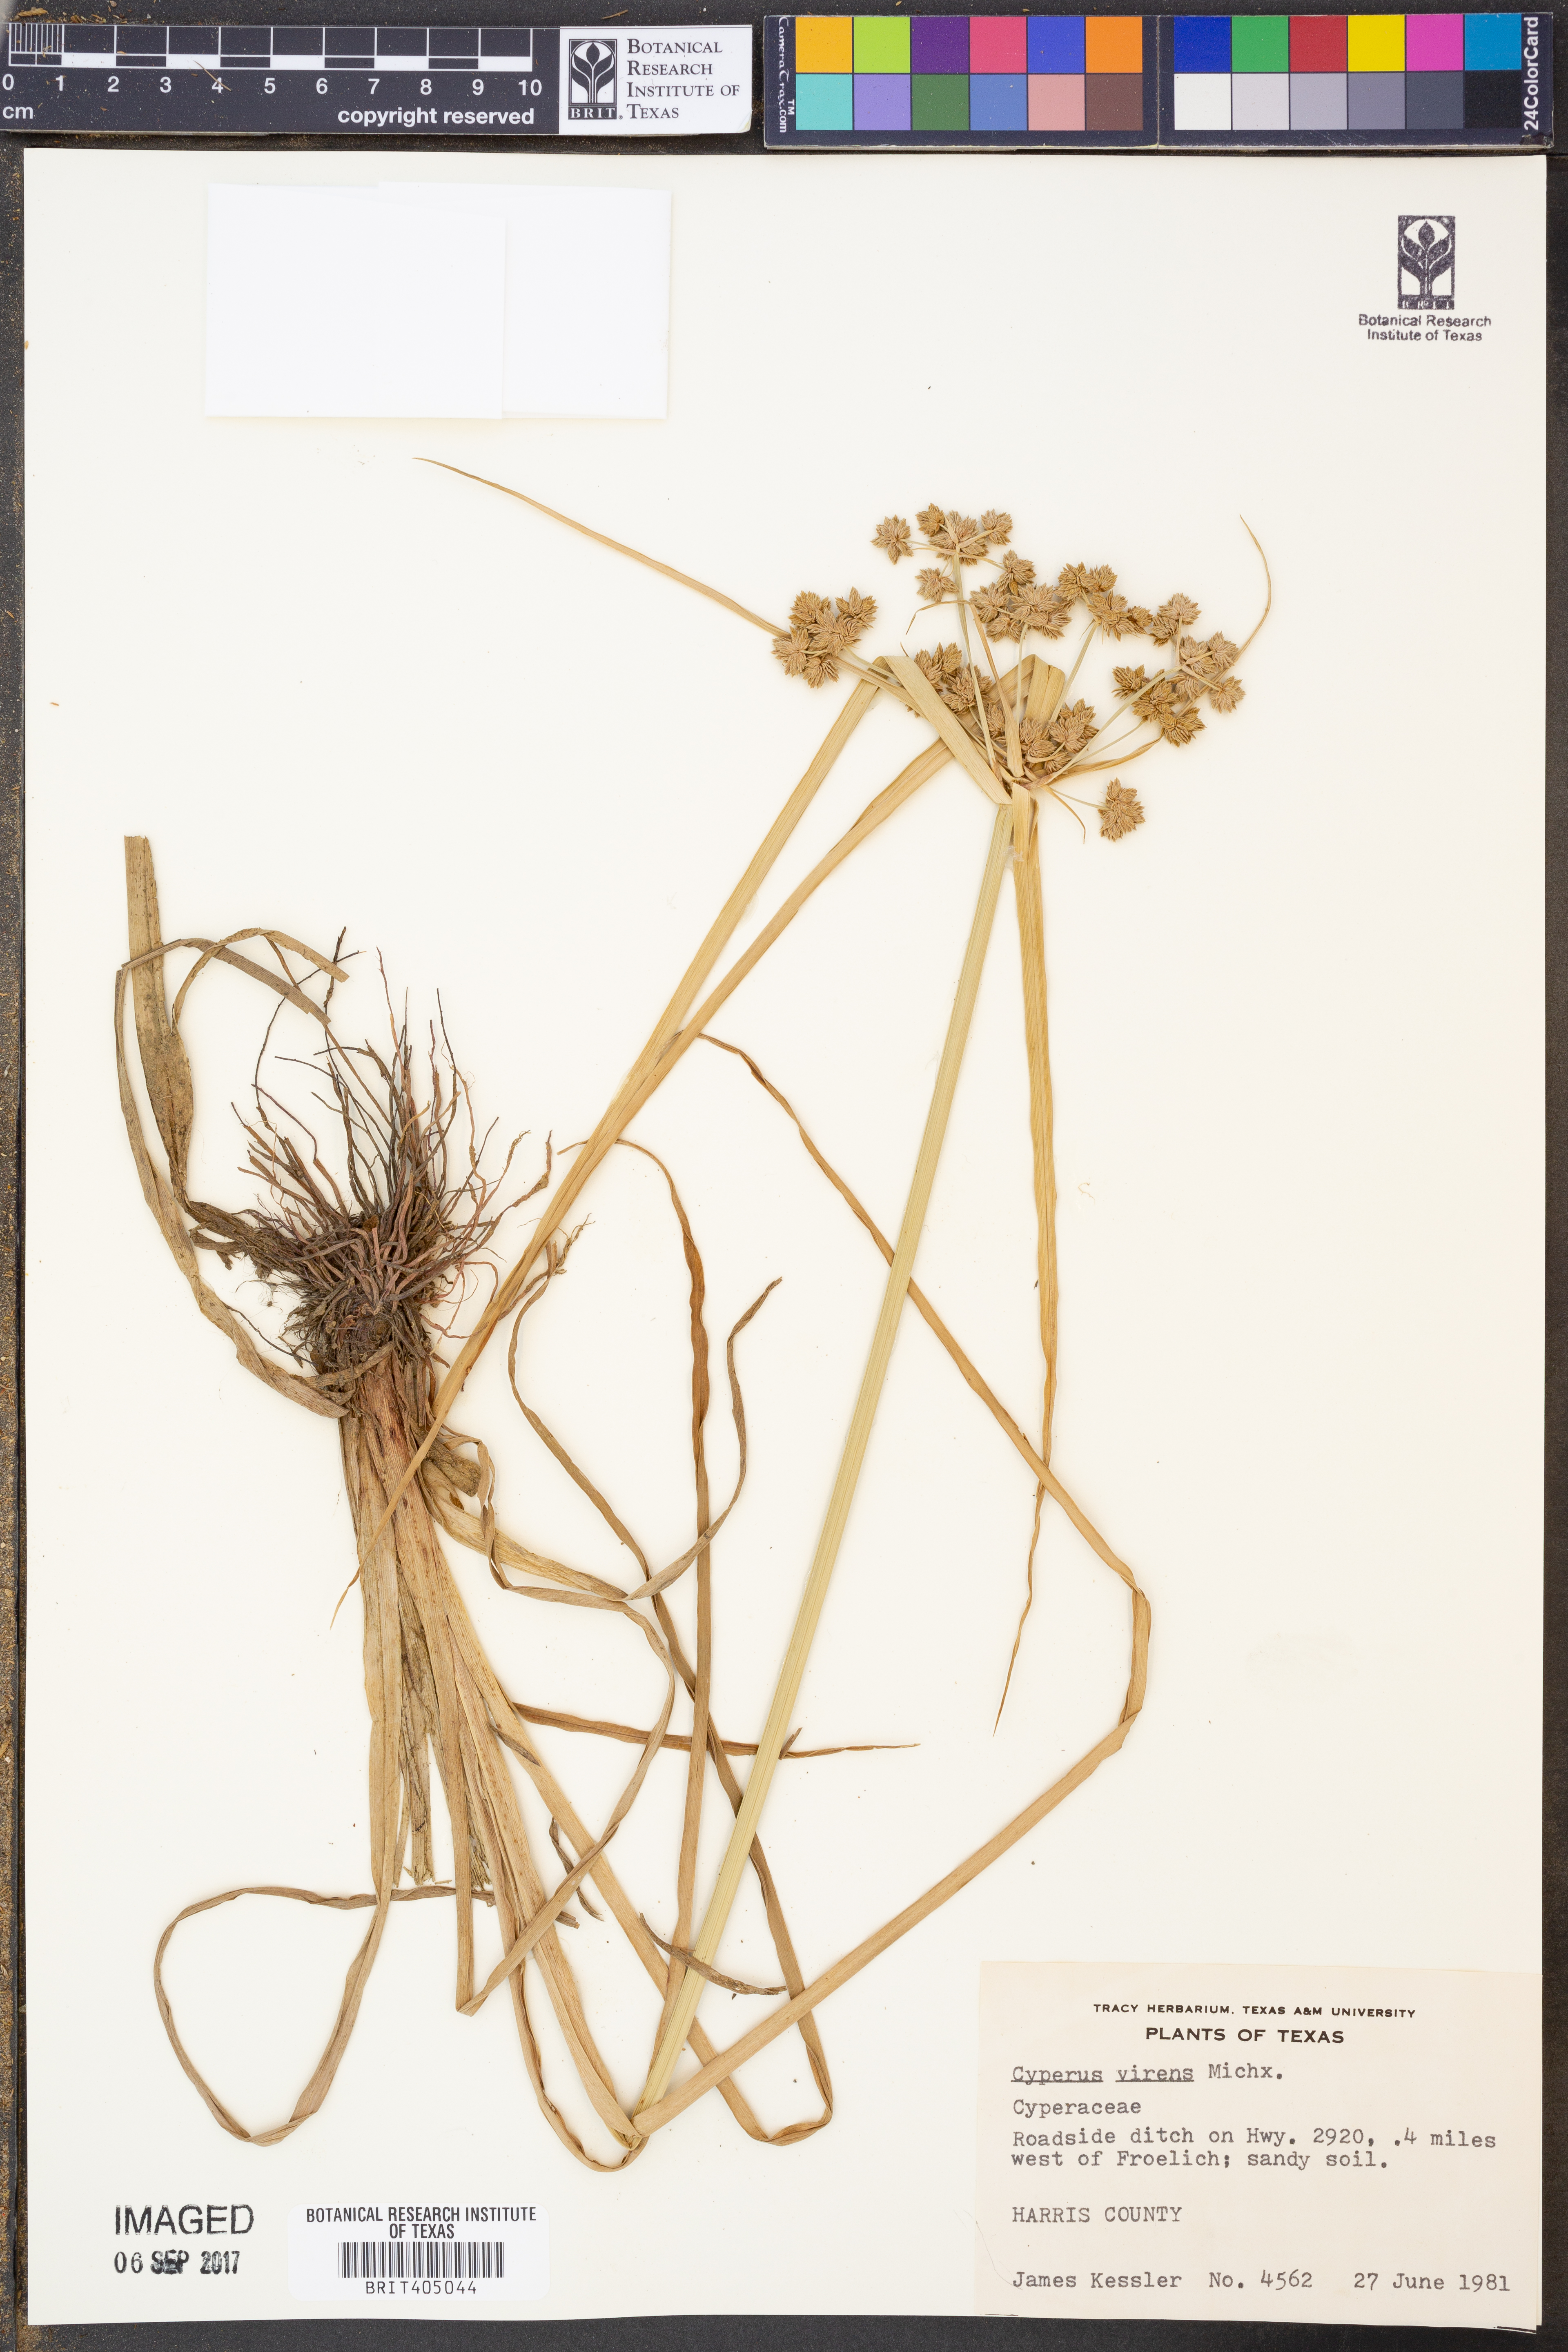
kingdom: Plantae
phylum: Tracheophyta
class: Liliopsida
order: Poales
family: Cyperaceae
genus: Cyperus
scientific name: Cyperus virens
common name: Green flatsedge
